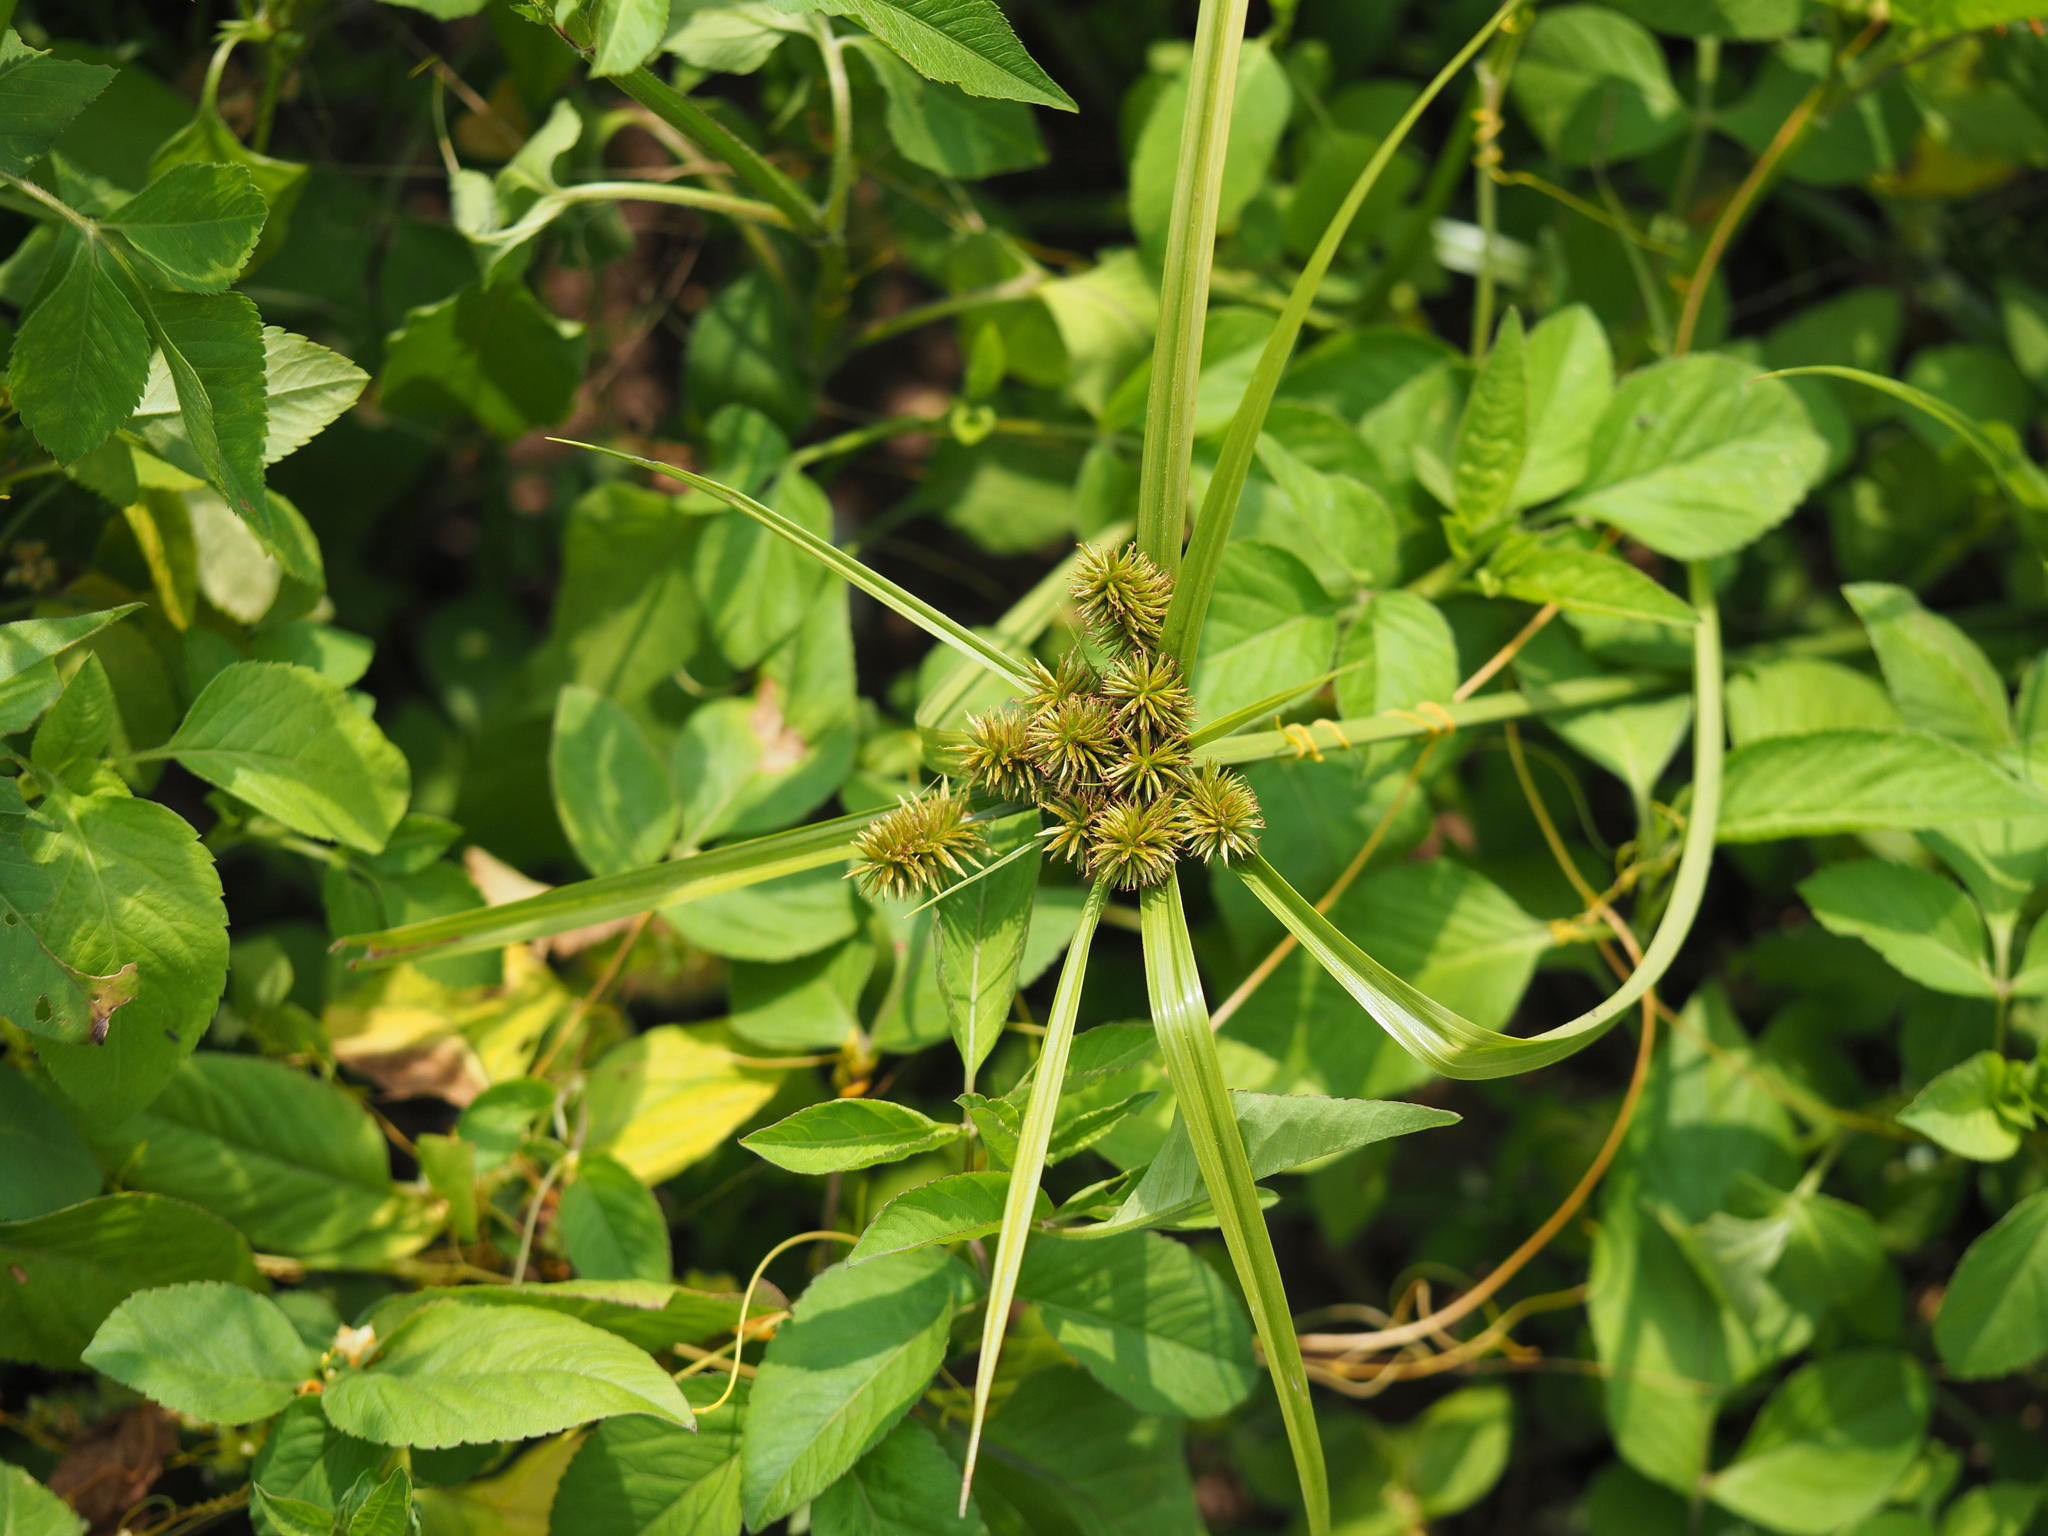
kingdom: Plantae
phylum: Tracheophyta
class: Liliopsida
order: Poales
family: Cyperaceae
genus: Cyperus
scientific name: Cyperus cyperoides
